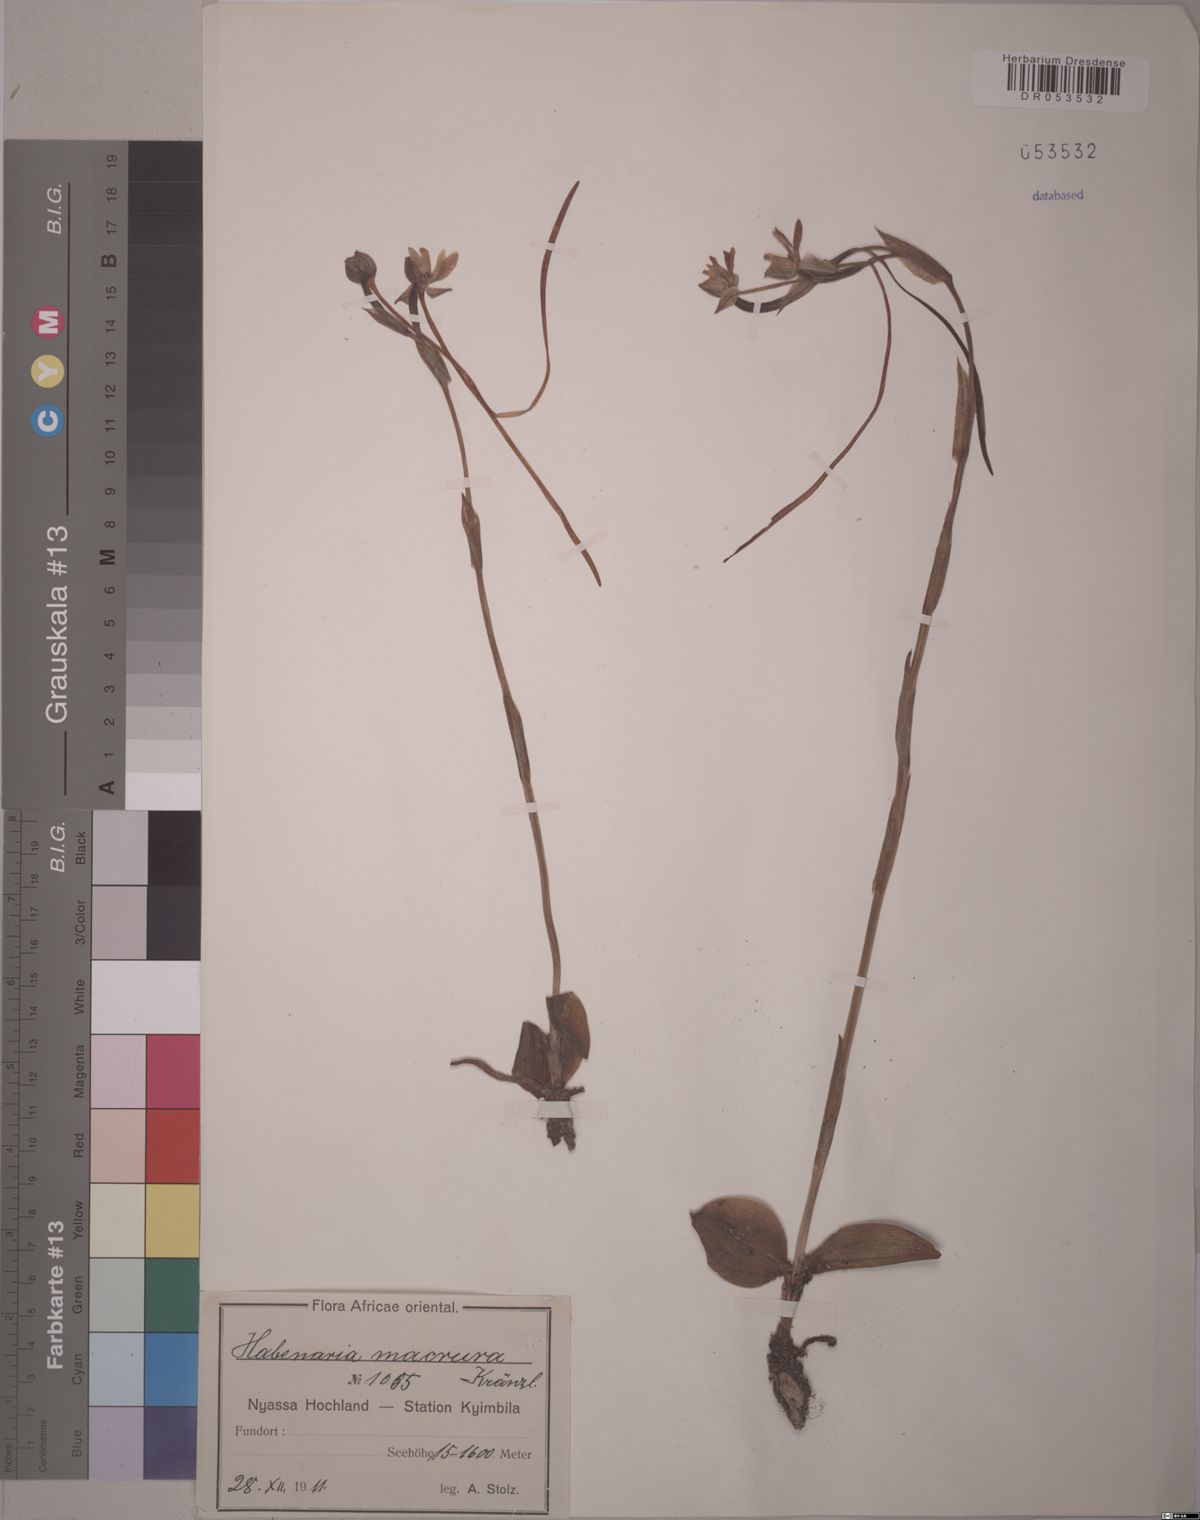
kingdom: Plantae
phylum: Tracheophyta
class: Liliopsida
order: Asparagales
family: Orchidaceae
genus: Habenaria
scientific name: Habenaria macrura
